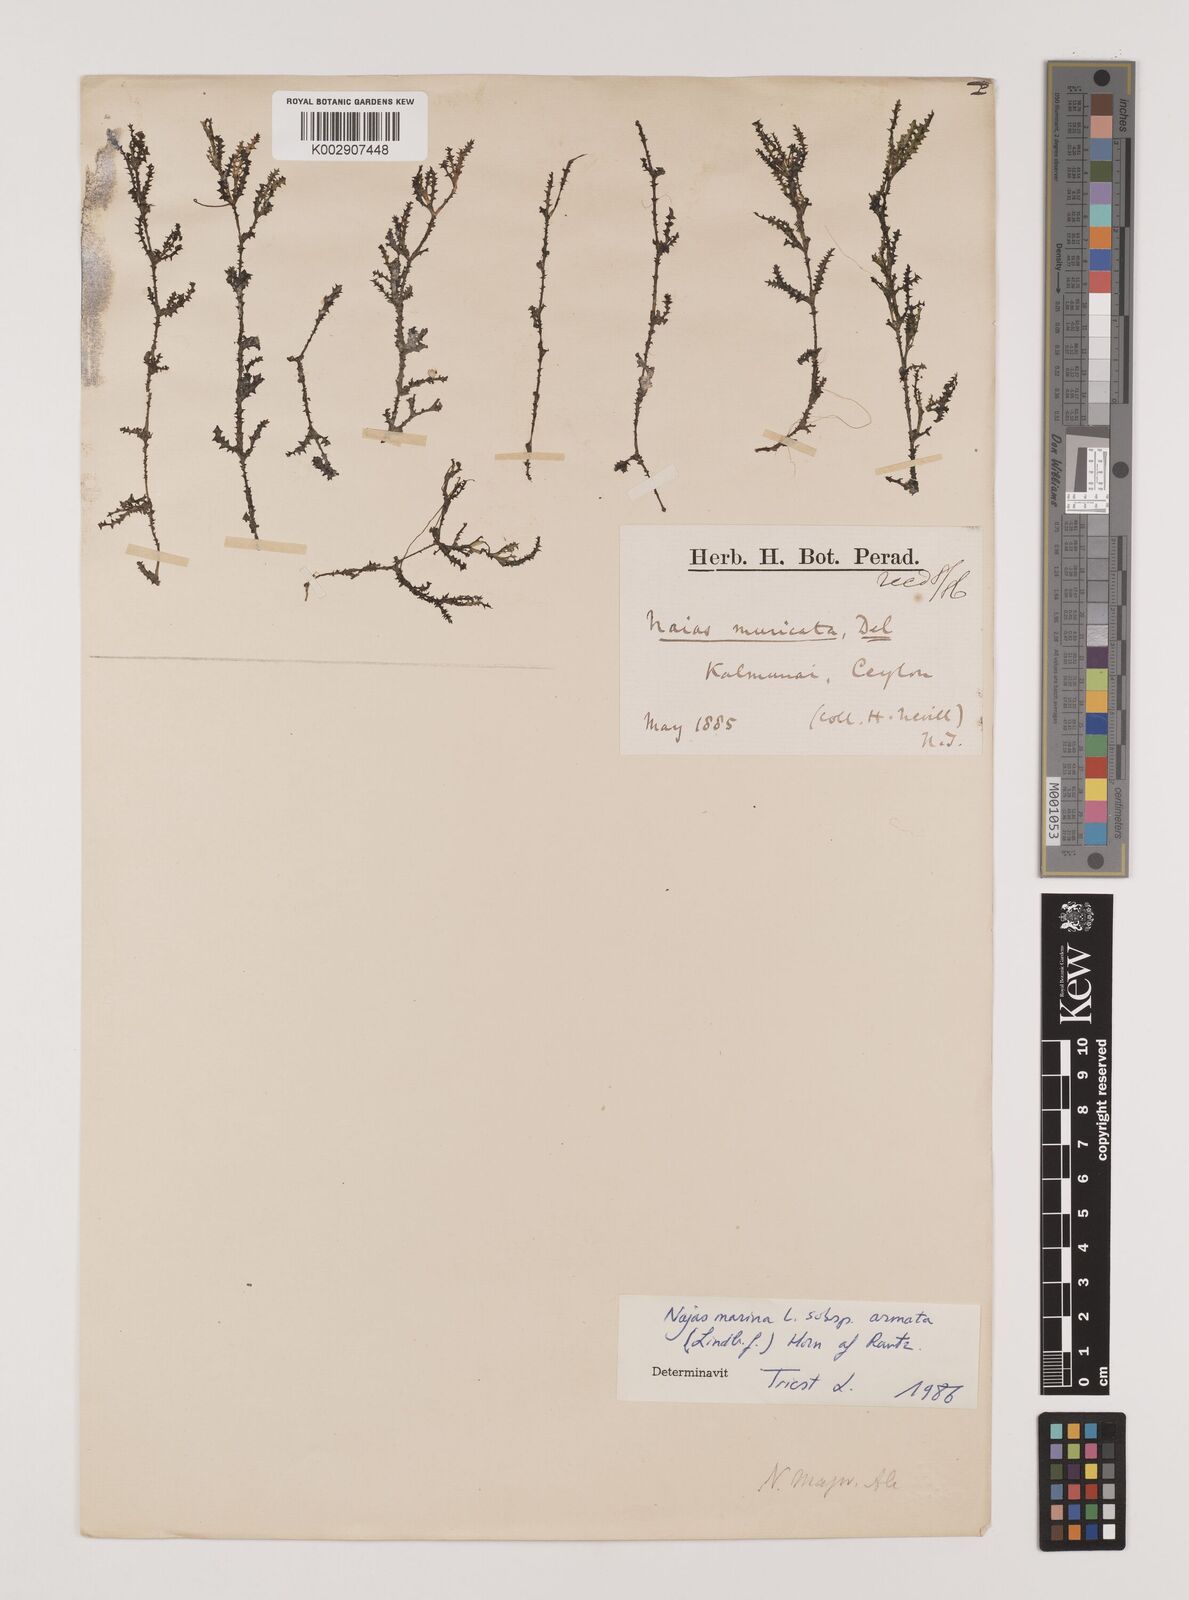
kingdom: Plantae
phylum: Tracheophyta
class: Liliopsida
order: Alismatales
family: Hydrocharitaceae
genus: Najas
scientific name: Najas marina
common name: Holly-leaved naiad
